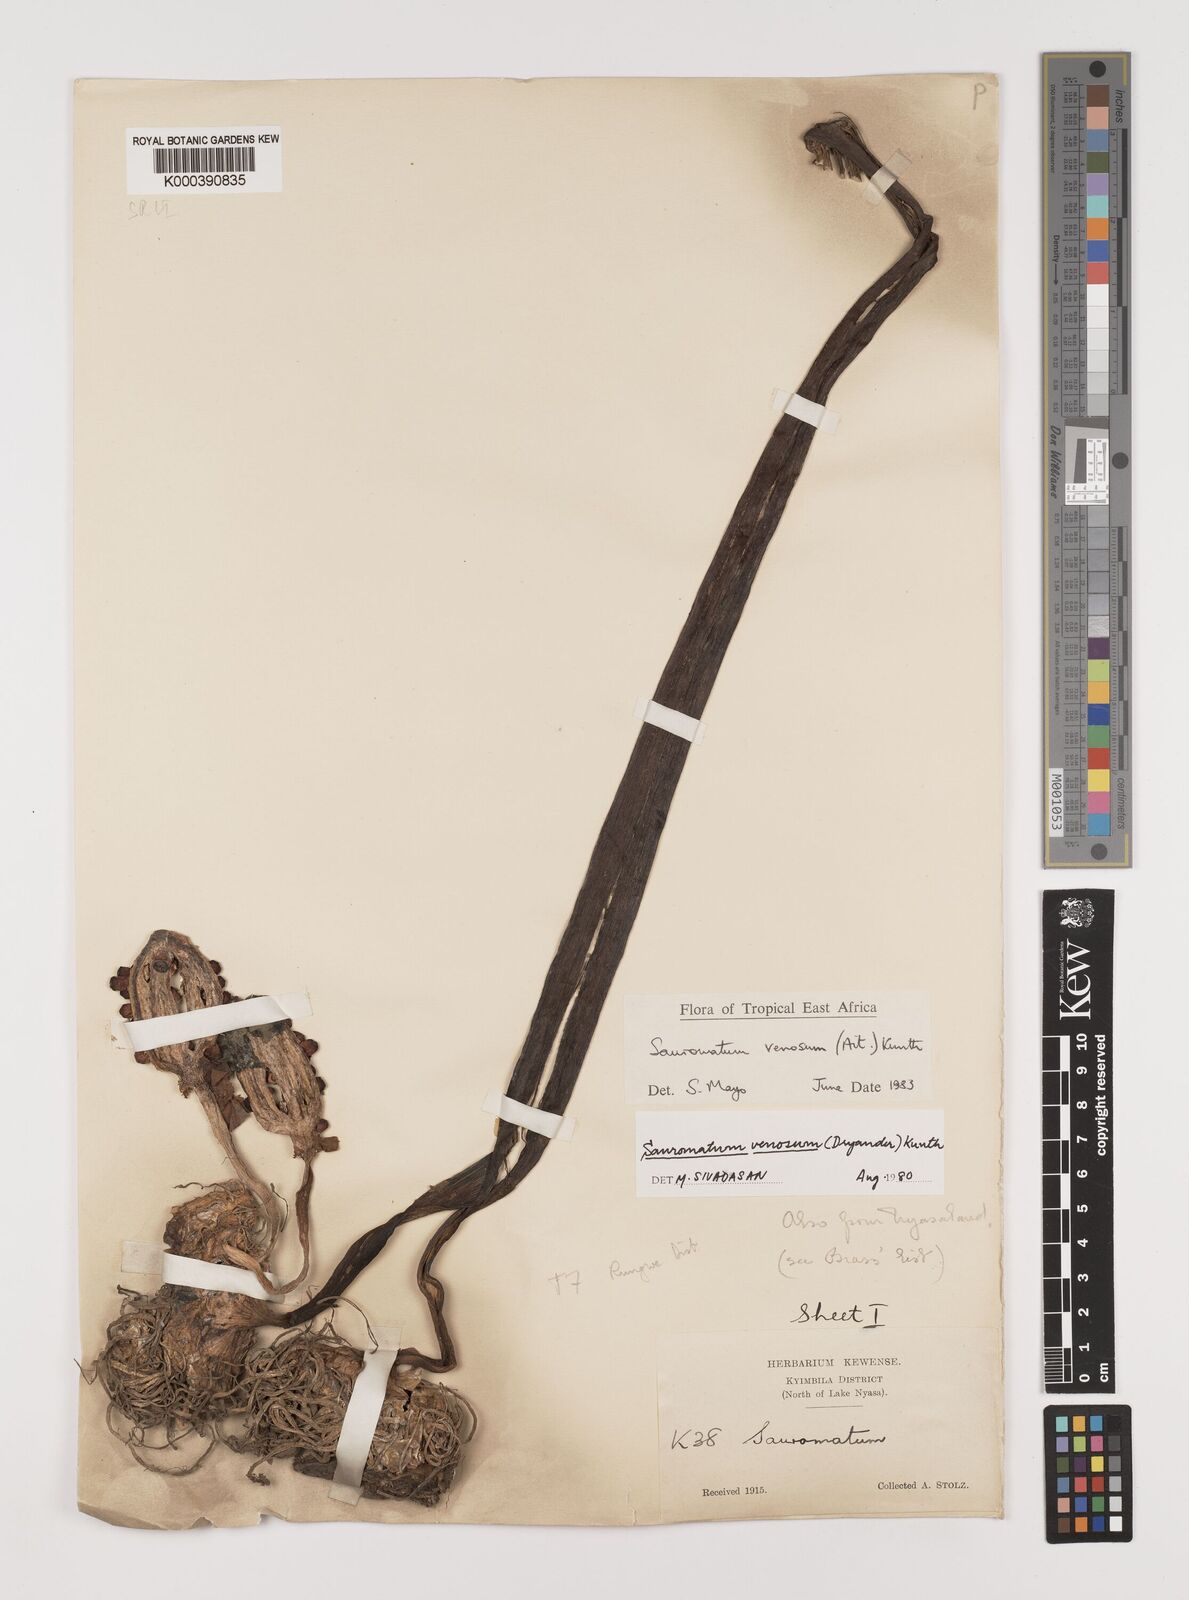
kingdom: Plantae
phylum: Tracheophyta
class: Liliopsida
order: Alismatales
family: Araceae
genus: Sauromatum
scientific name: Sauromatum venosum
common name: Voodoo lily
